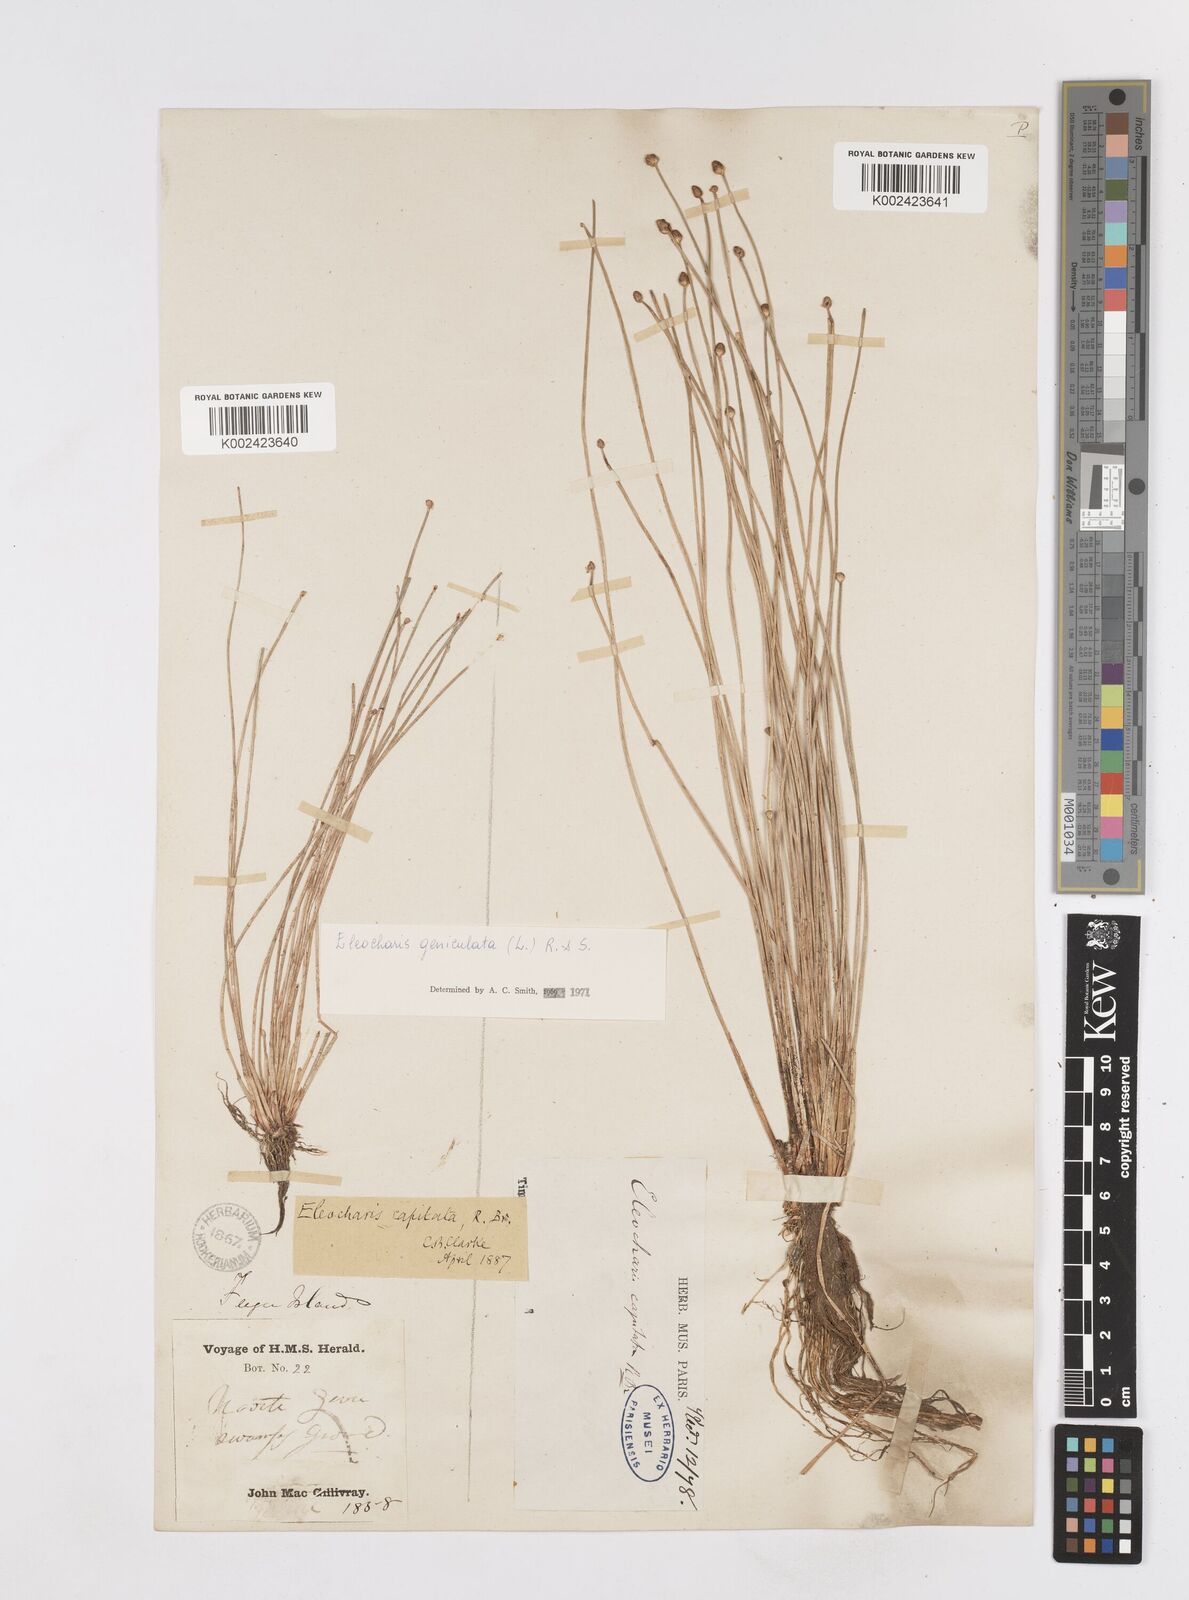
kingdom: Plantae
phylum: Tracheophyta
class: Liliopsida
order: Poales
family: Cyperaceae
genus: Eleocharis
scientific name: Eleocharis geniculata
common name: Canada spikesedge
